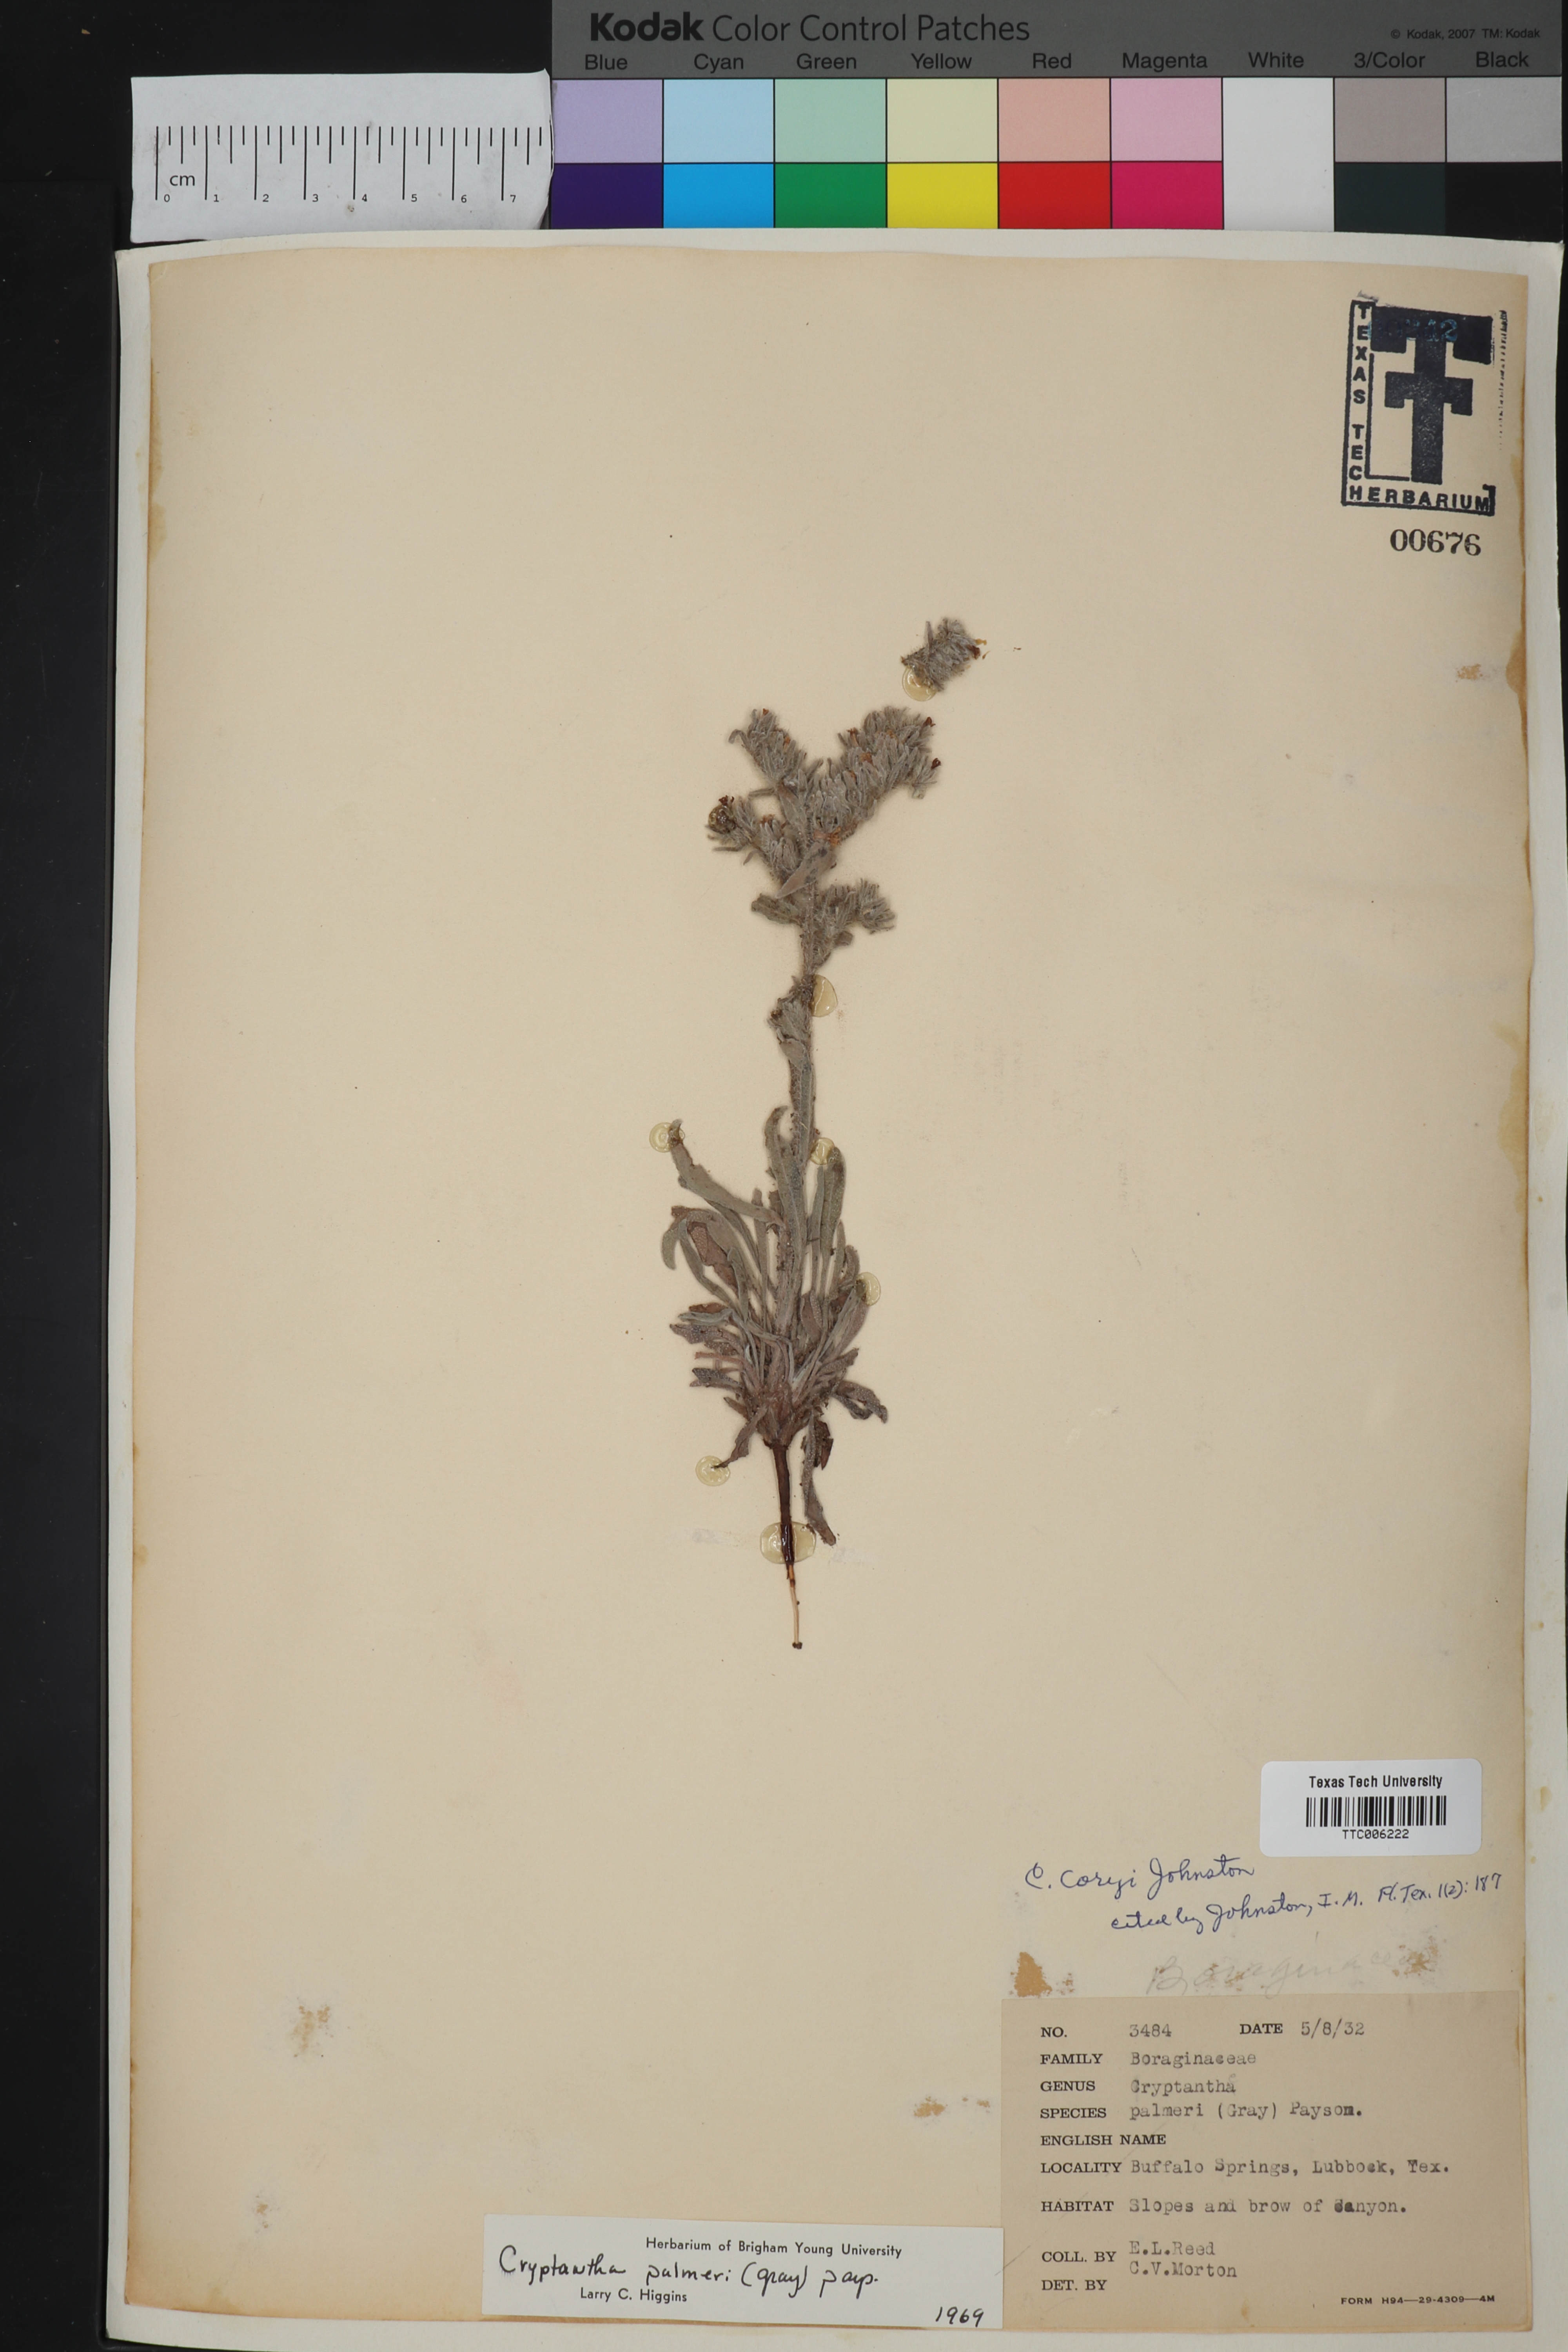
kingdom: Plantae
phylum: Tracheophyta
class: Magnoliopsida
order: Boraginales
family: Boraginaceae
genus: Oreocarya
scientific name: Oreocarya palmeri
